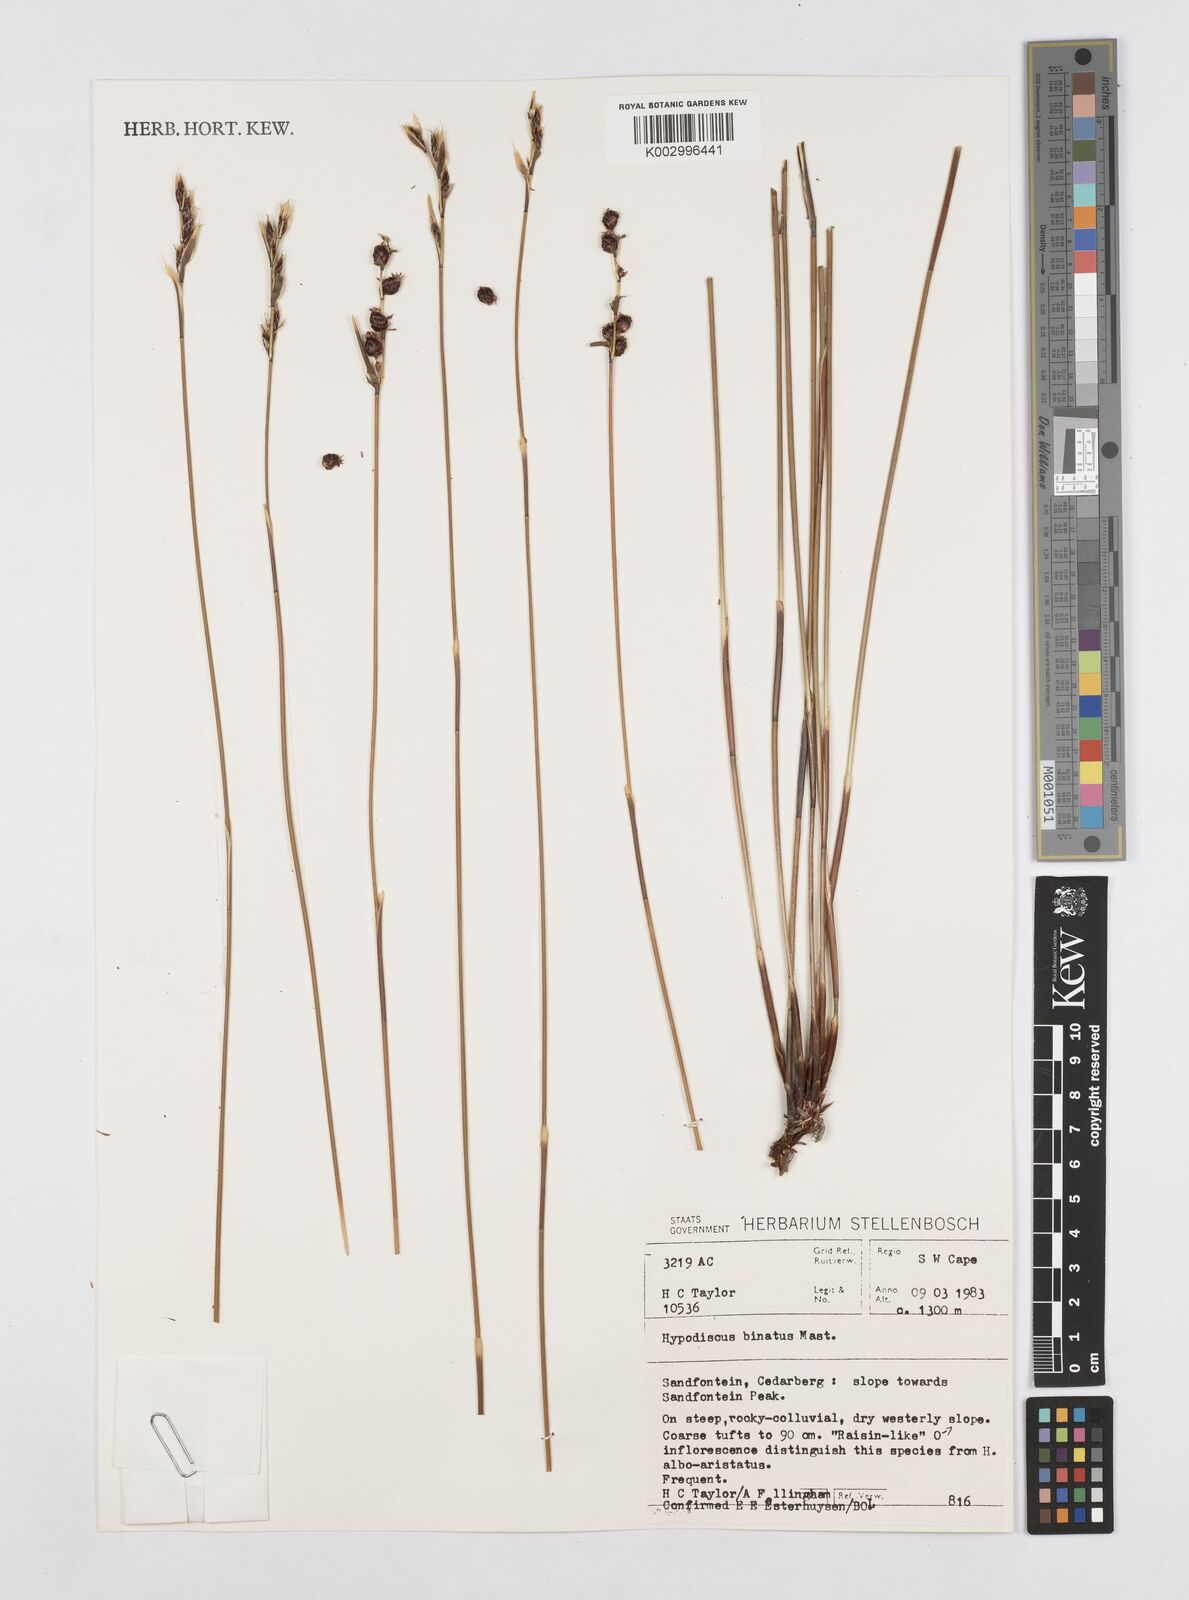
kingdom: Plantae
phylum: Tracheophyta
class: Liliopsida
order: Poales
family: Restionaceae
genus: Hypodiscus
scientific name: Hypodiscus laevigatus
